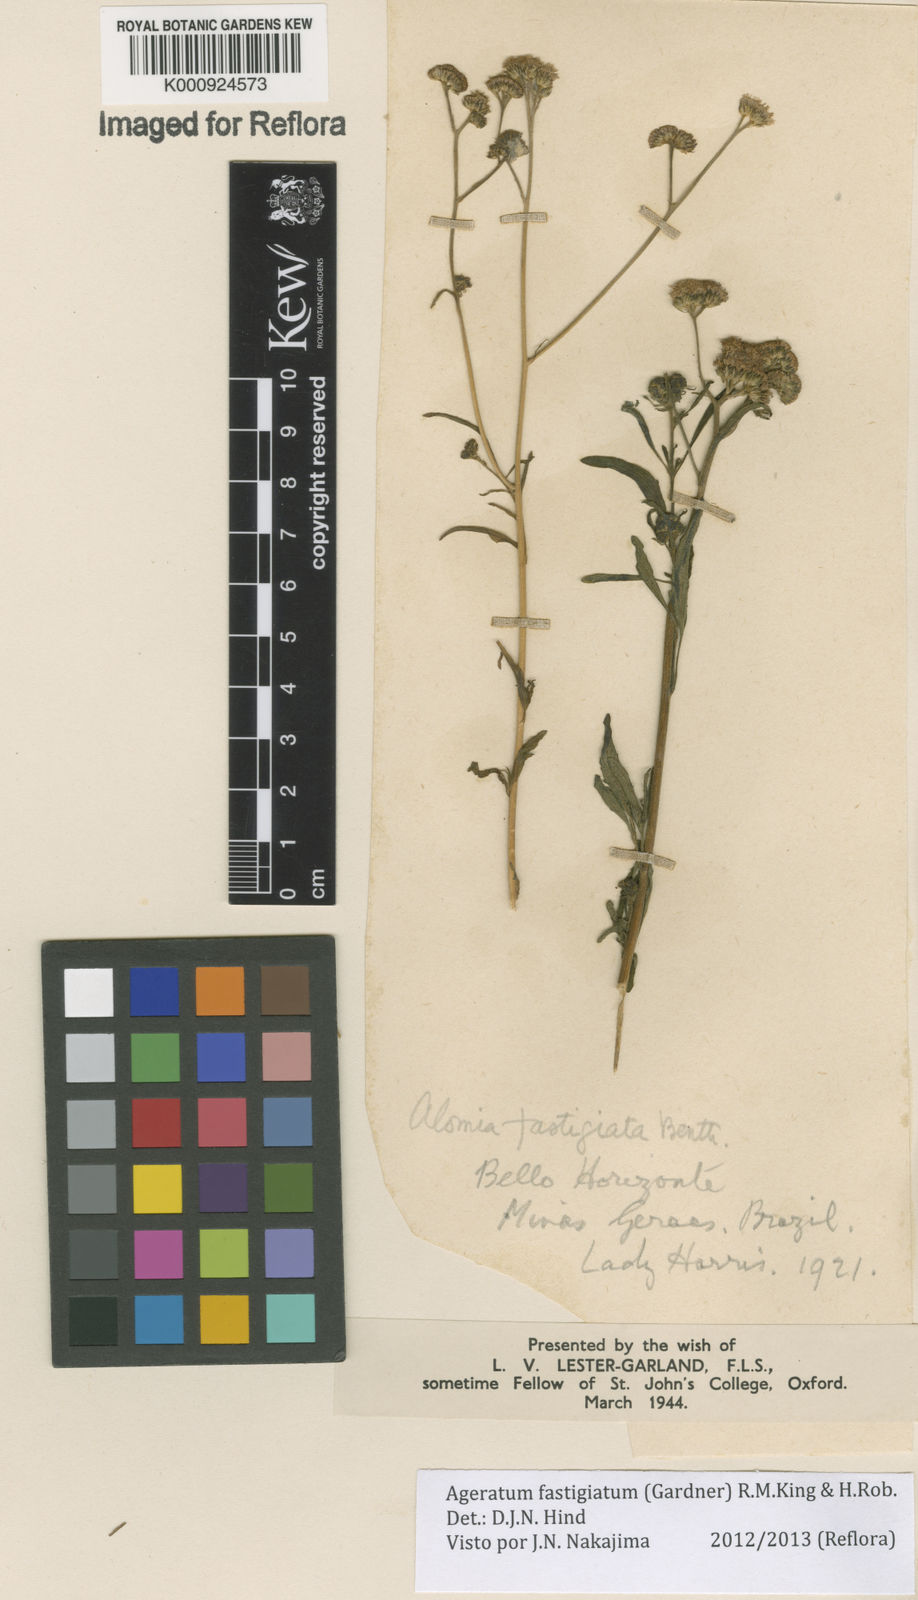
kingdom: Plantae
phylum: Tracheophyta
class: Magnoliopsida
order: Asterales
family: Asteraceae
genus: Ageratum
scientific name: Ageratum fastigiatum
